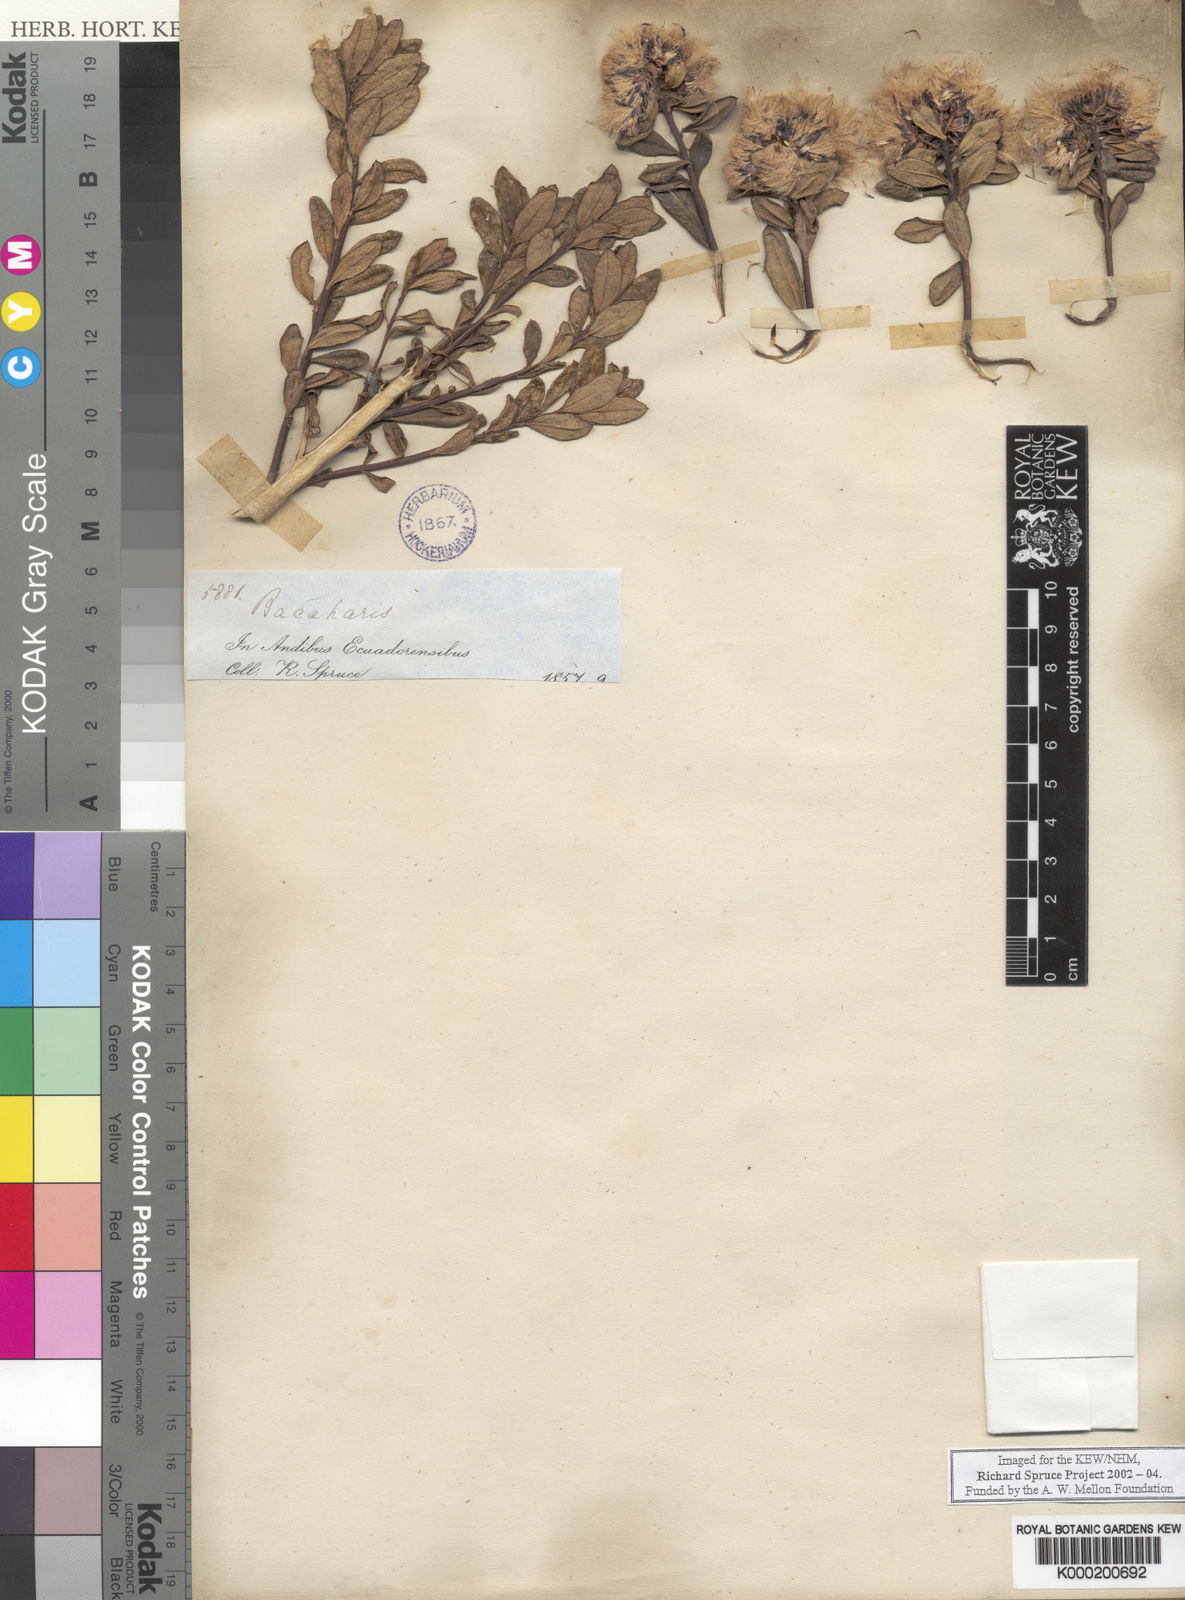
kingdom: Plantae
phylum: Tracheophyta
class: Magnoliopsida
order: Asterales
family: Asteraceae
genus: Baccharis
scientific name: Baccharis
